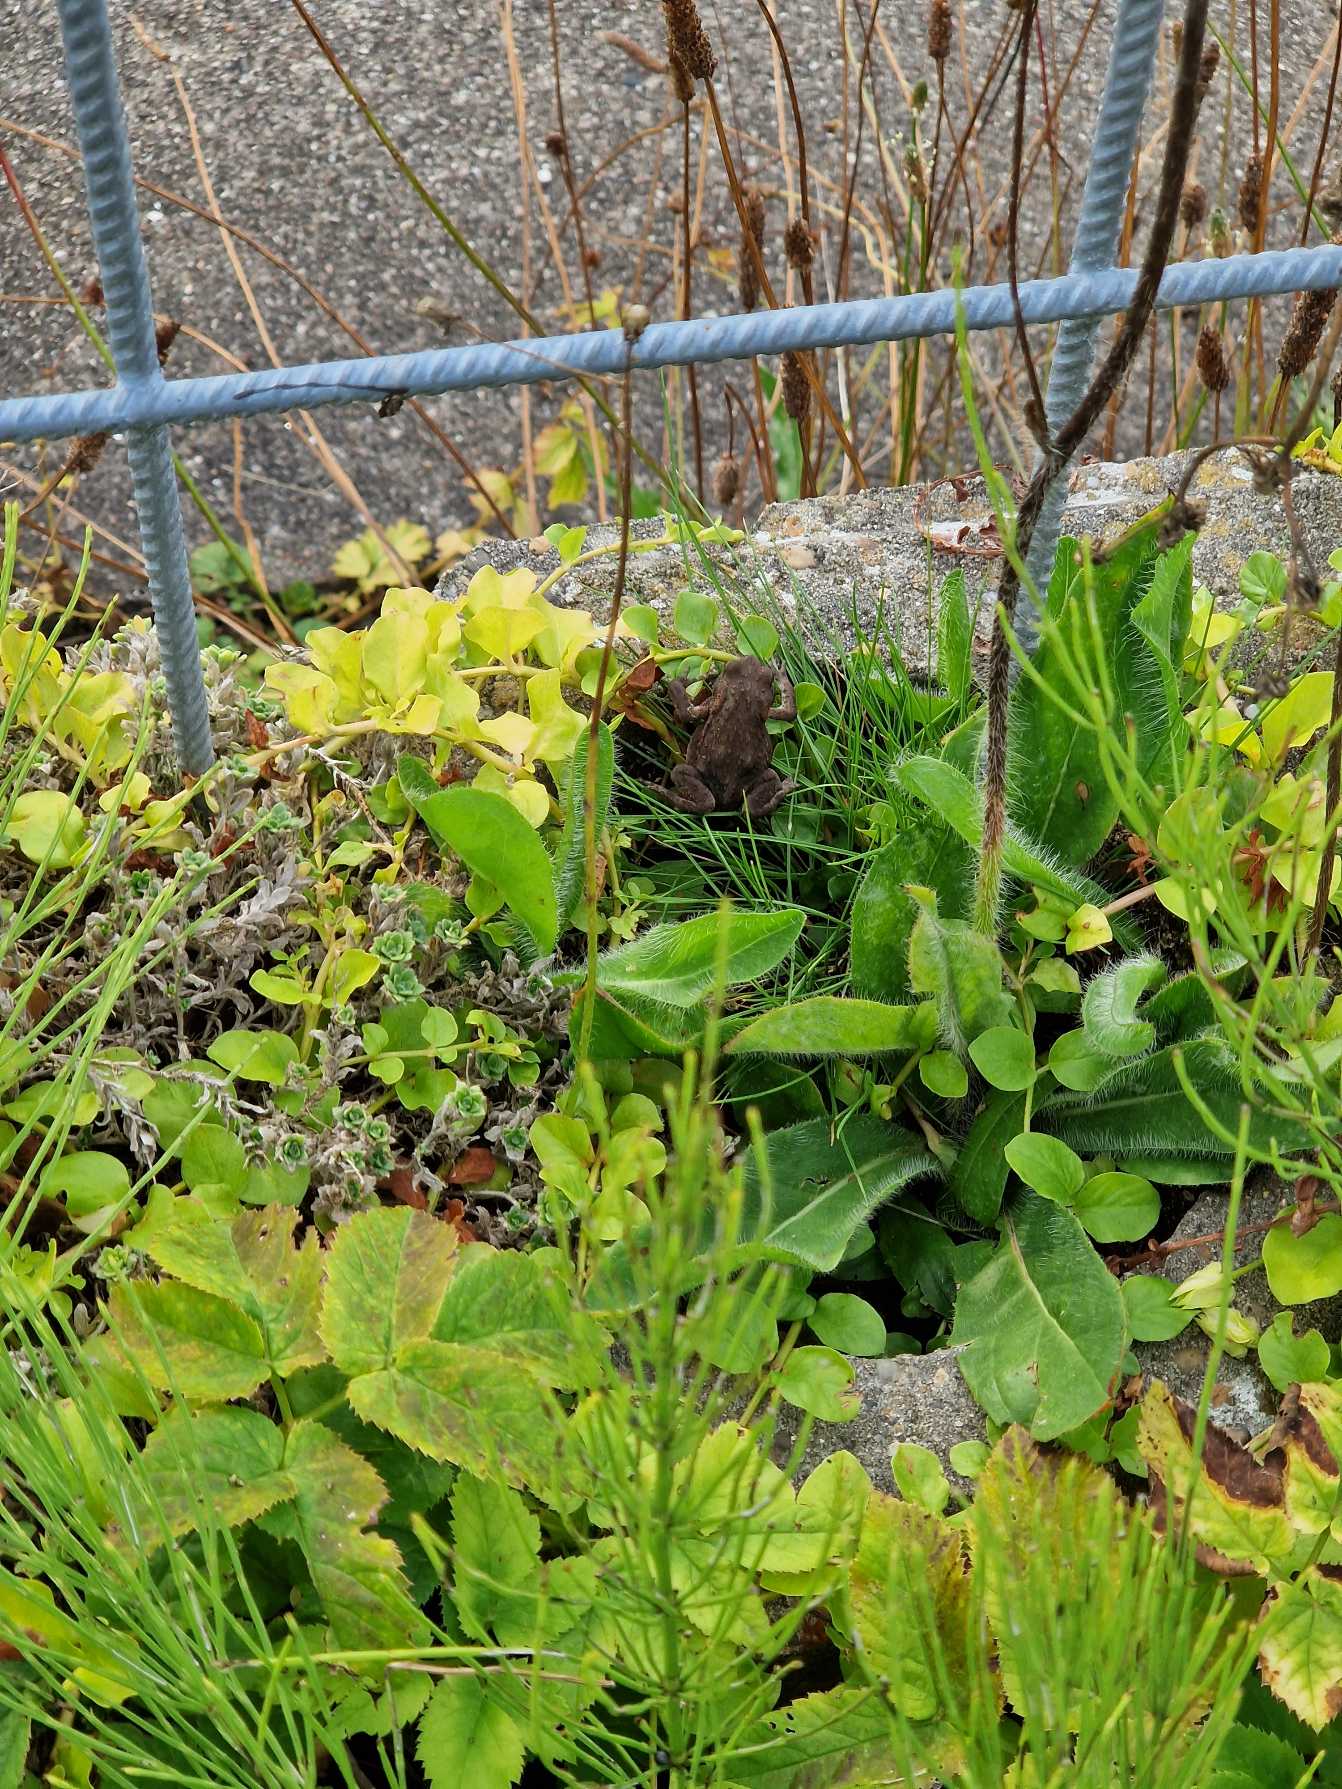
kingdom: Animalia
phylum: Chordata
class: Amphibia
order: Anura
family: Bufonidae
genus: Bufo
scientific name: Bufo bufo
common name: Skrubtudse
